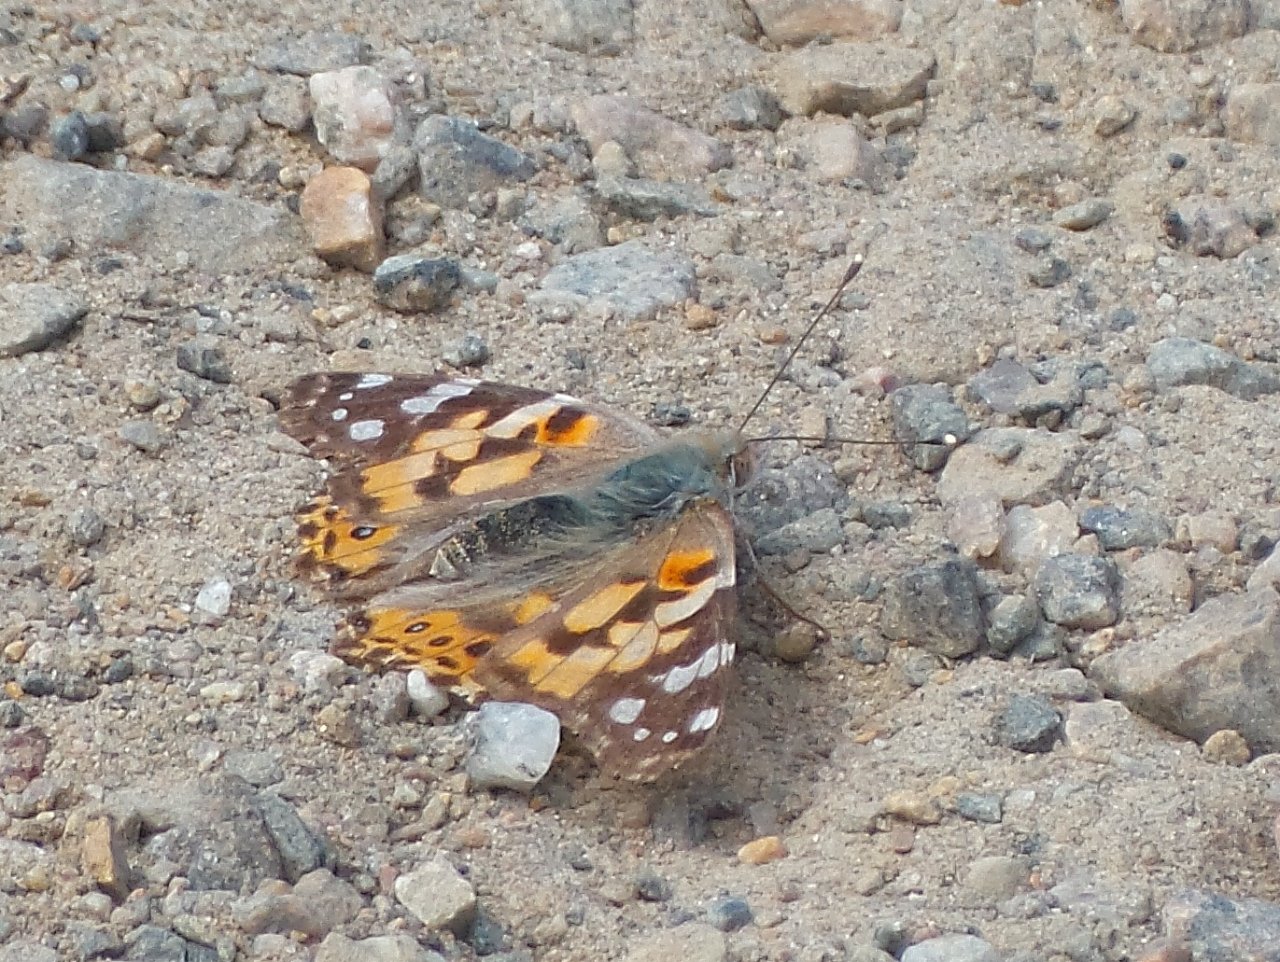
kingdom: Animalia
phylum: Arthropoda
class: Insecta
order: Lepidoptera
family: Nymphalidae
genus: Vanessa
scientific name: Vanessa cardui
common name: Painted Lady
